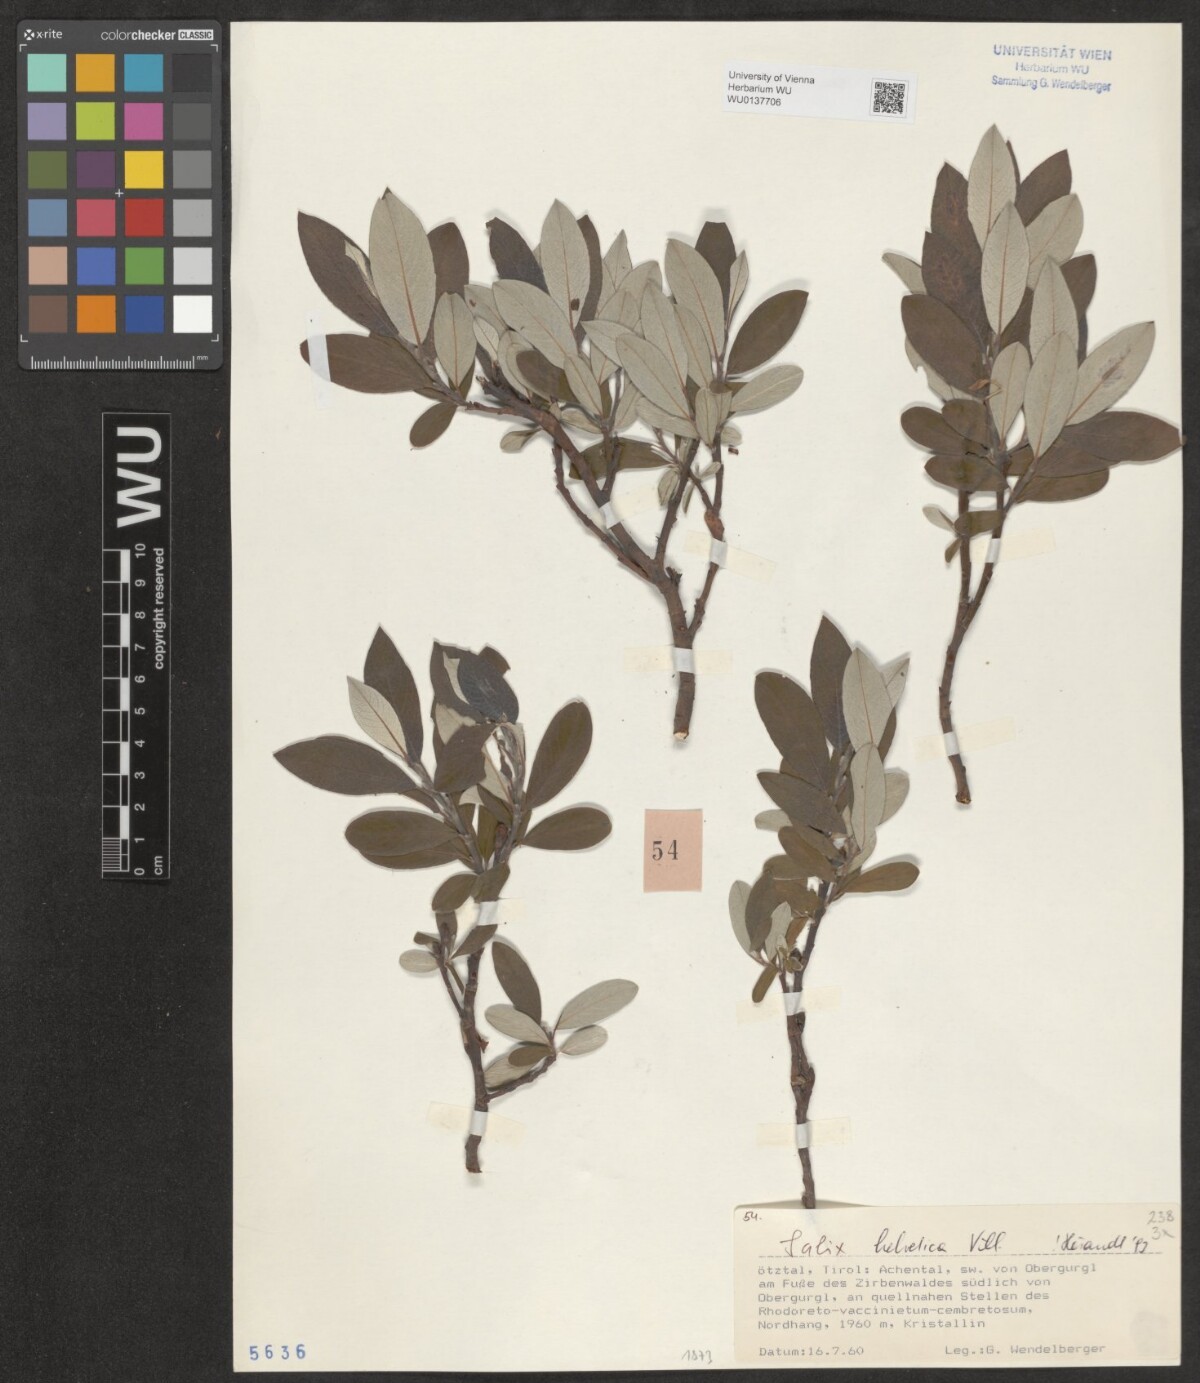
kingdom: Plantae
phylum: Tracheophyta
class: Magnoliopsida
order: Malpighiales
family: Salicaceae
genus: Salix
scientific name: Salix helvetica
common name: Swiss willow
